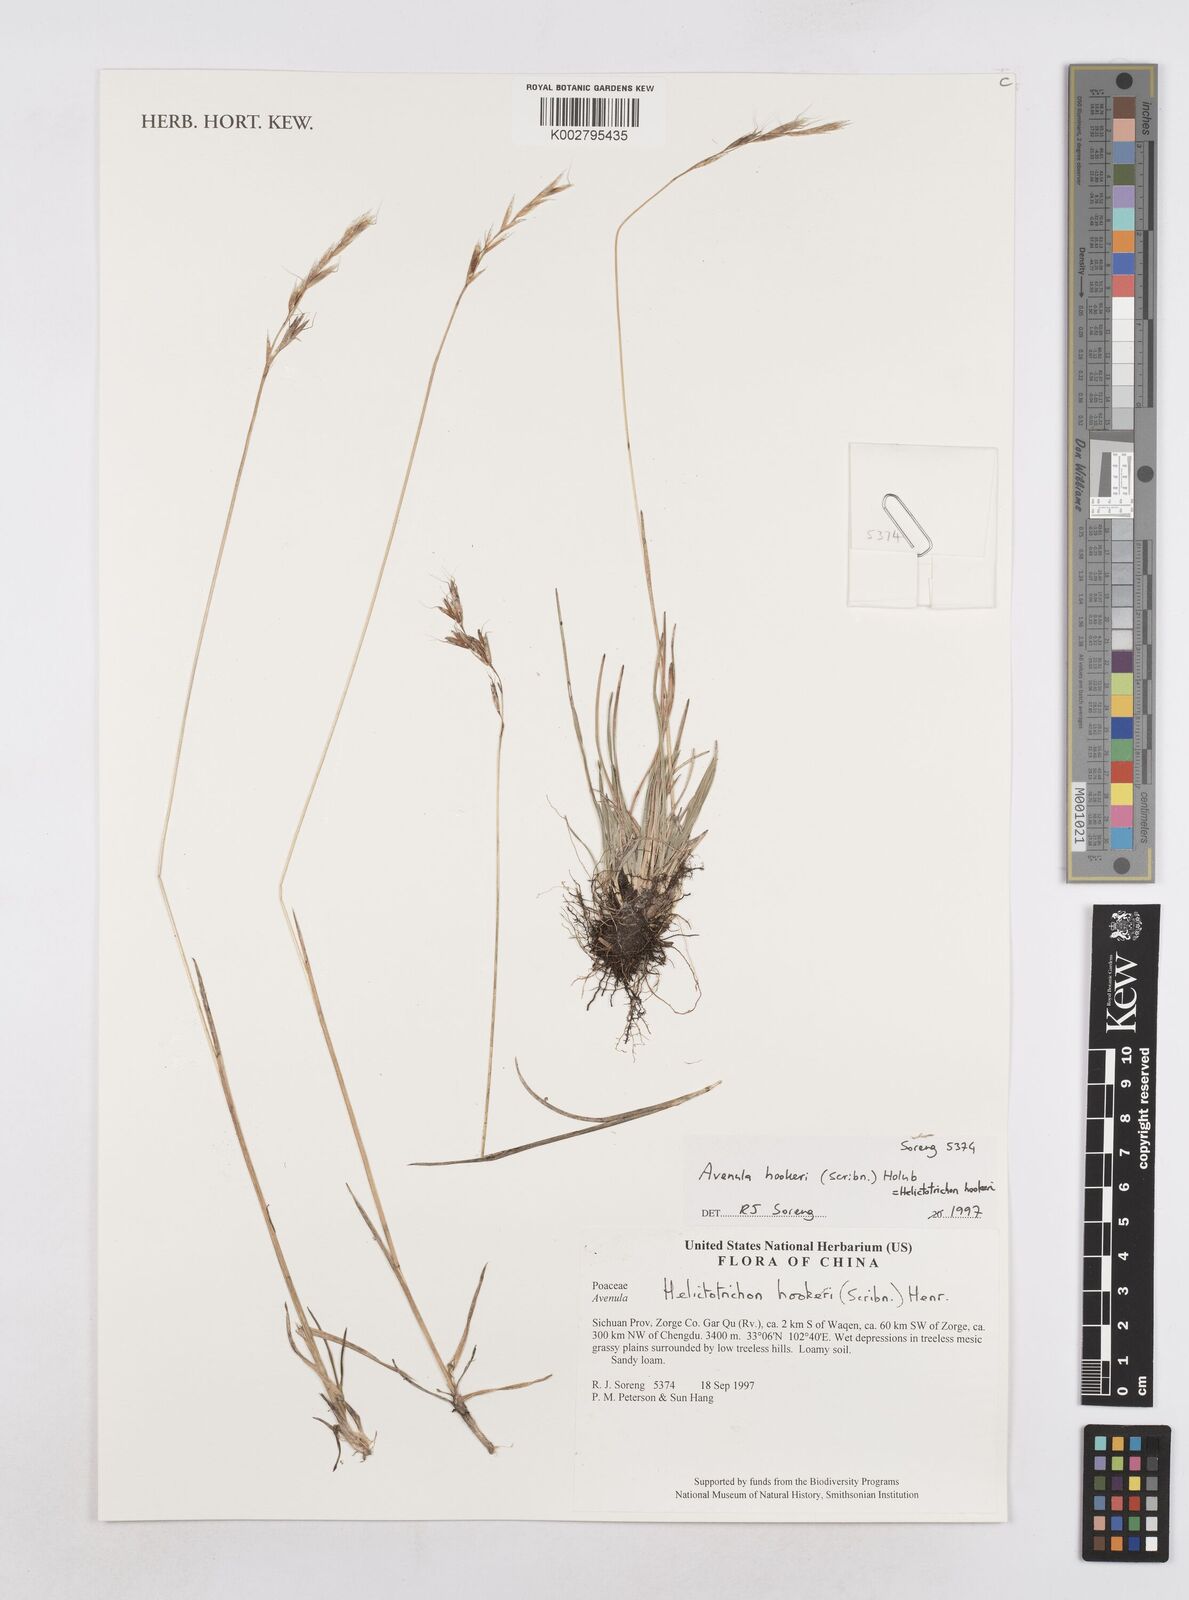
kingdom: Plantae
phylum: Tracheophyta
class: Liliopsida
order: Poales
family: Poaceae
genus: Helictochloa
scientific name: Helictochloa hookeri
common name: Hooker's alpine oatgrass
